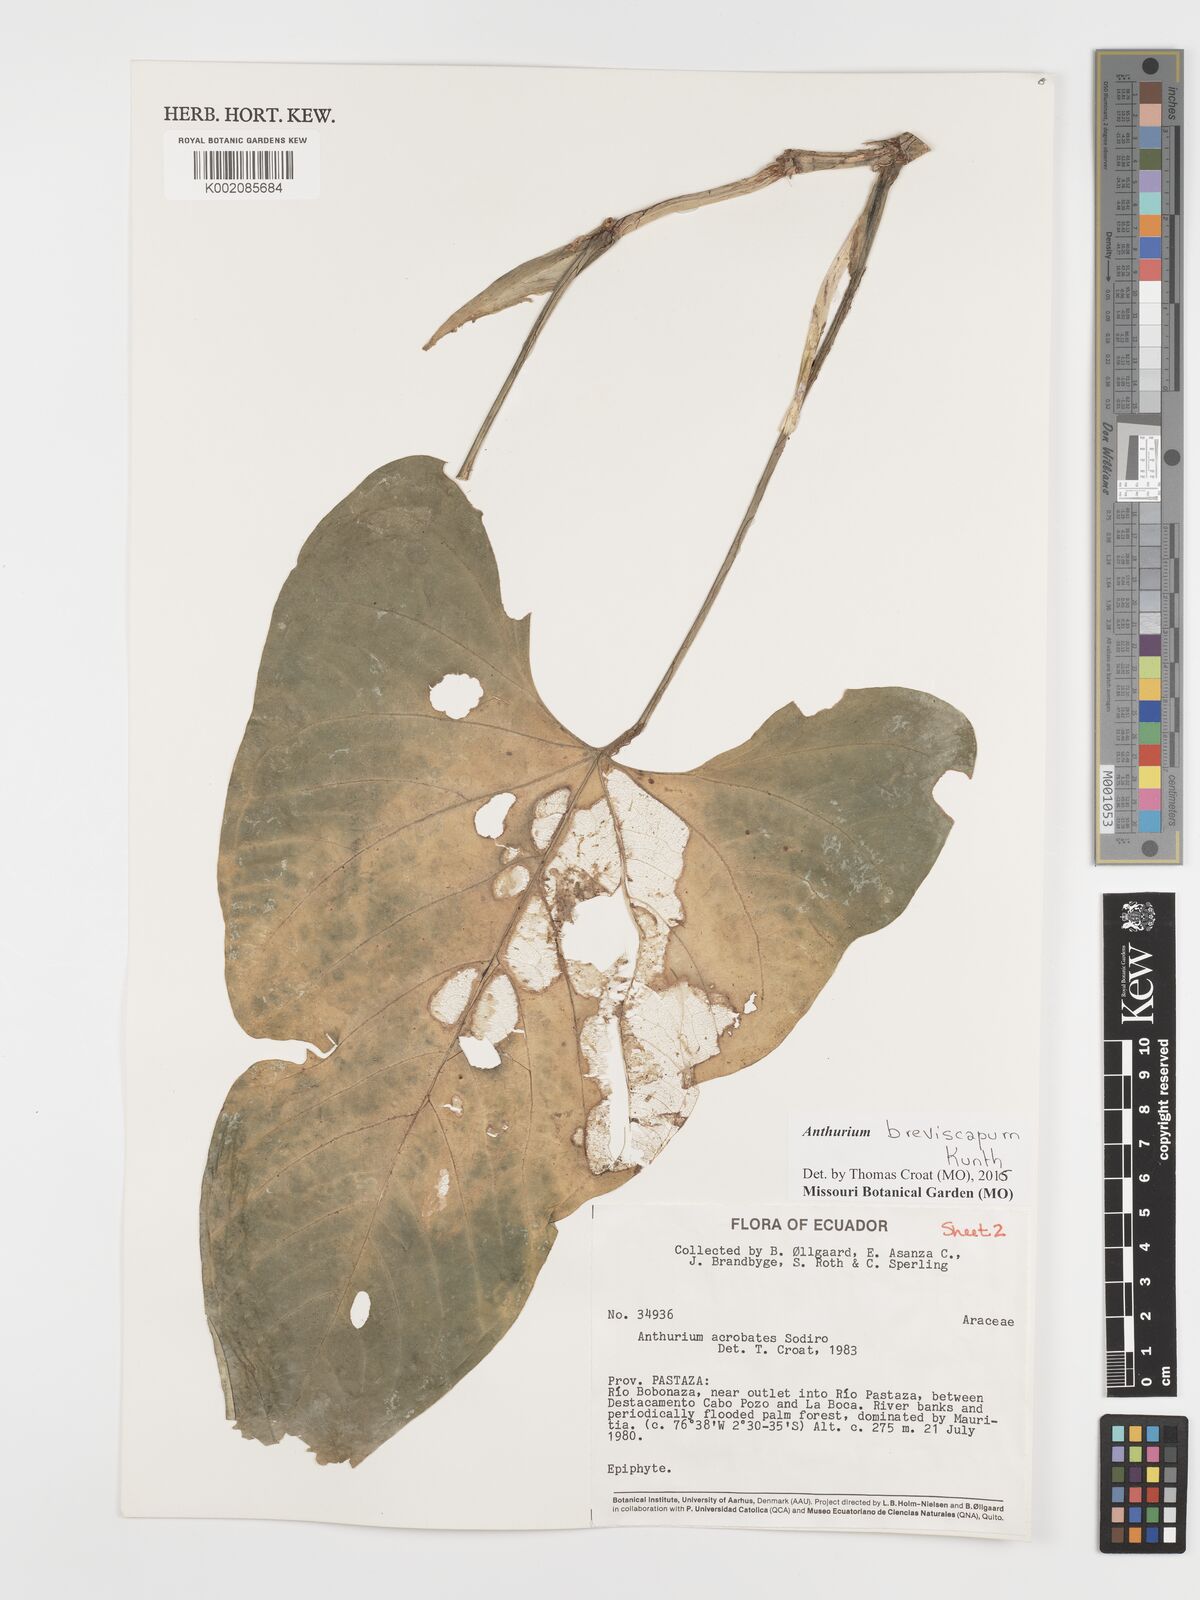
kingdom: Plantae
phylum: Tracheophyta
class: Liliopsida
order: Alismatales
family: Araceae
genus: Anthurium
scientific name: Anthurium breviscapum
